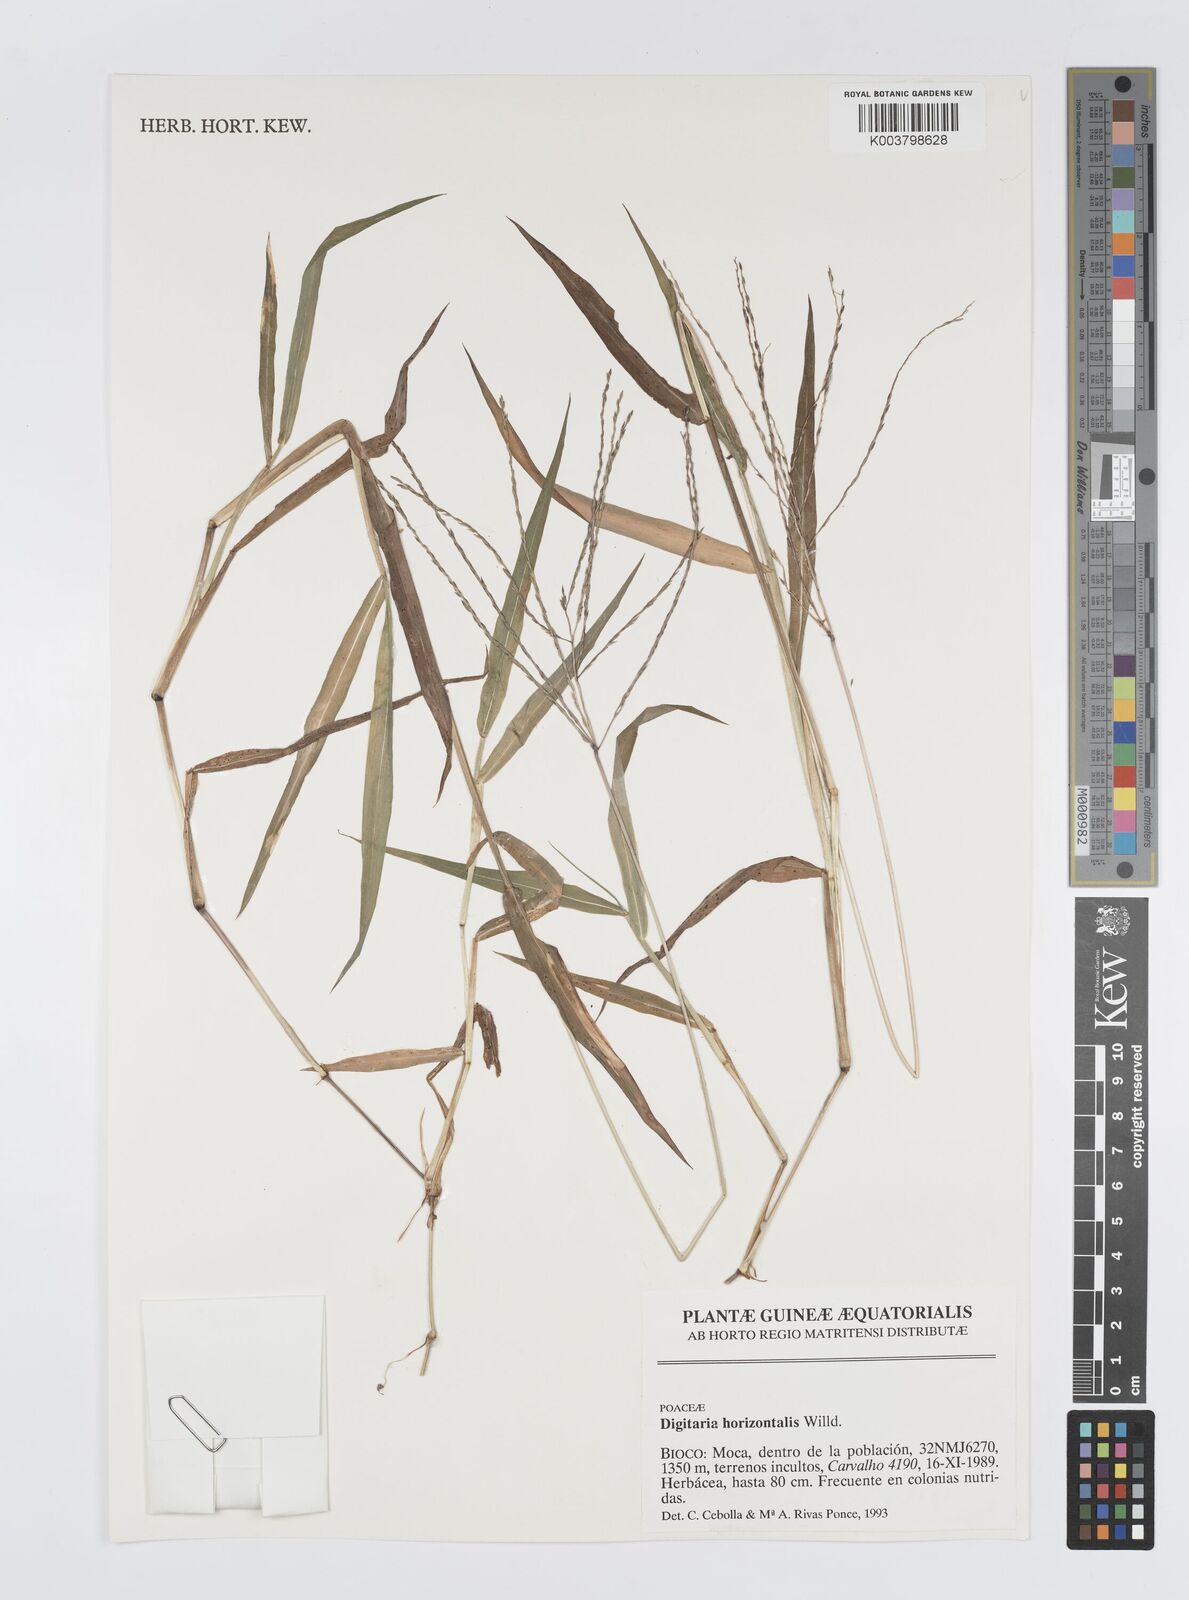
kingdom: Plantae
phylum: Tracheophyta
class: Liliopsida
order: Poales
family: Poaceae
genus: Digitaria
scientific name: Digitaria horizontalis
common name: Jamaican crabgrass
